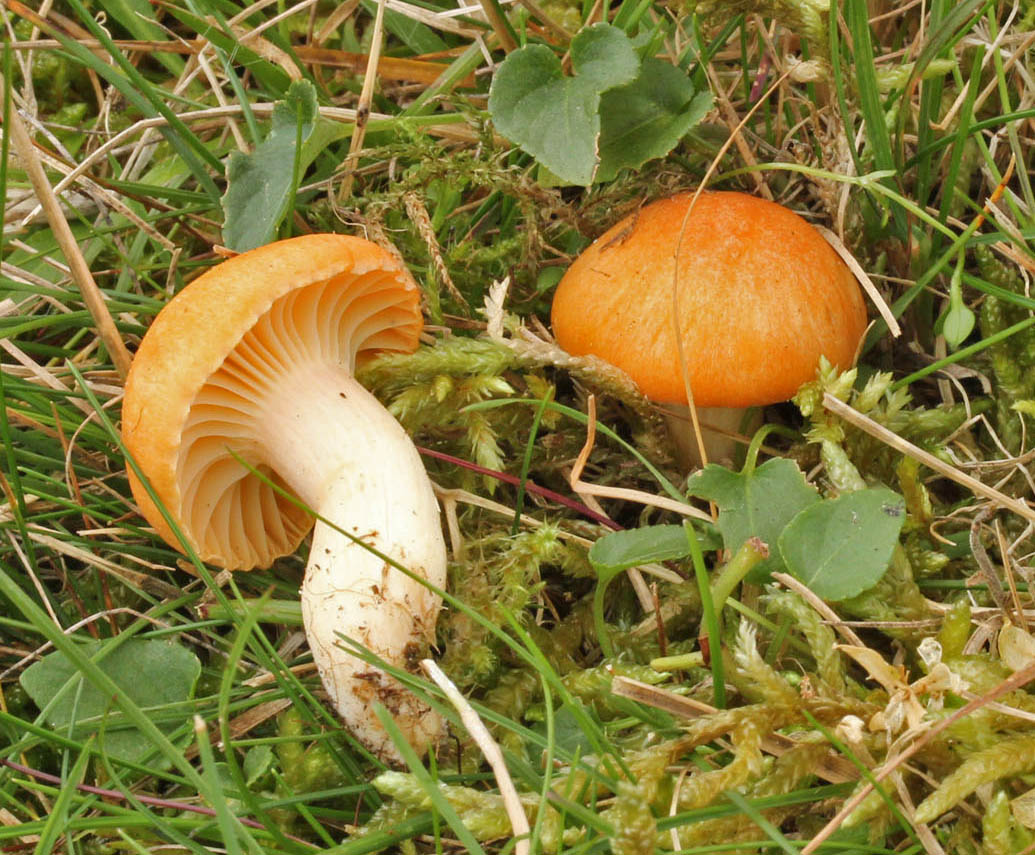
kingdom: Fungi
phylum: Basidiomycota
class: Agaricomycetes
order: Agaricales
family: Hygrophoraceae
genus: Cuphophyllus
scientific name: Cuphophyllus pratensis
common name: eng-vokshat
